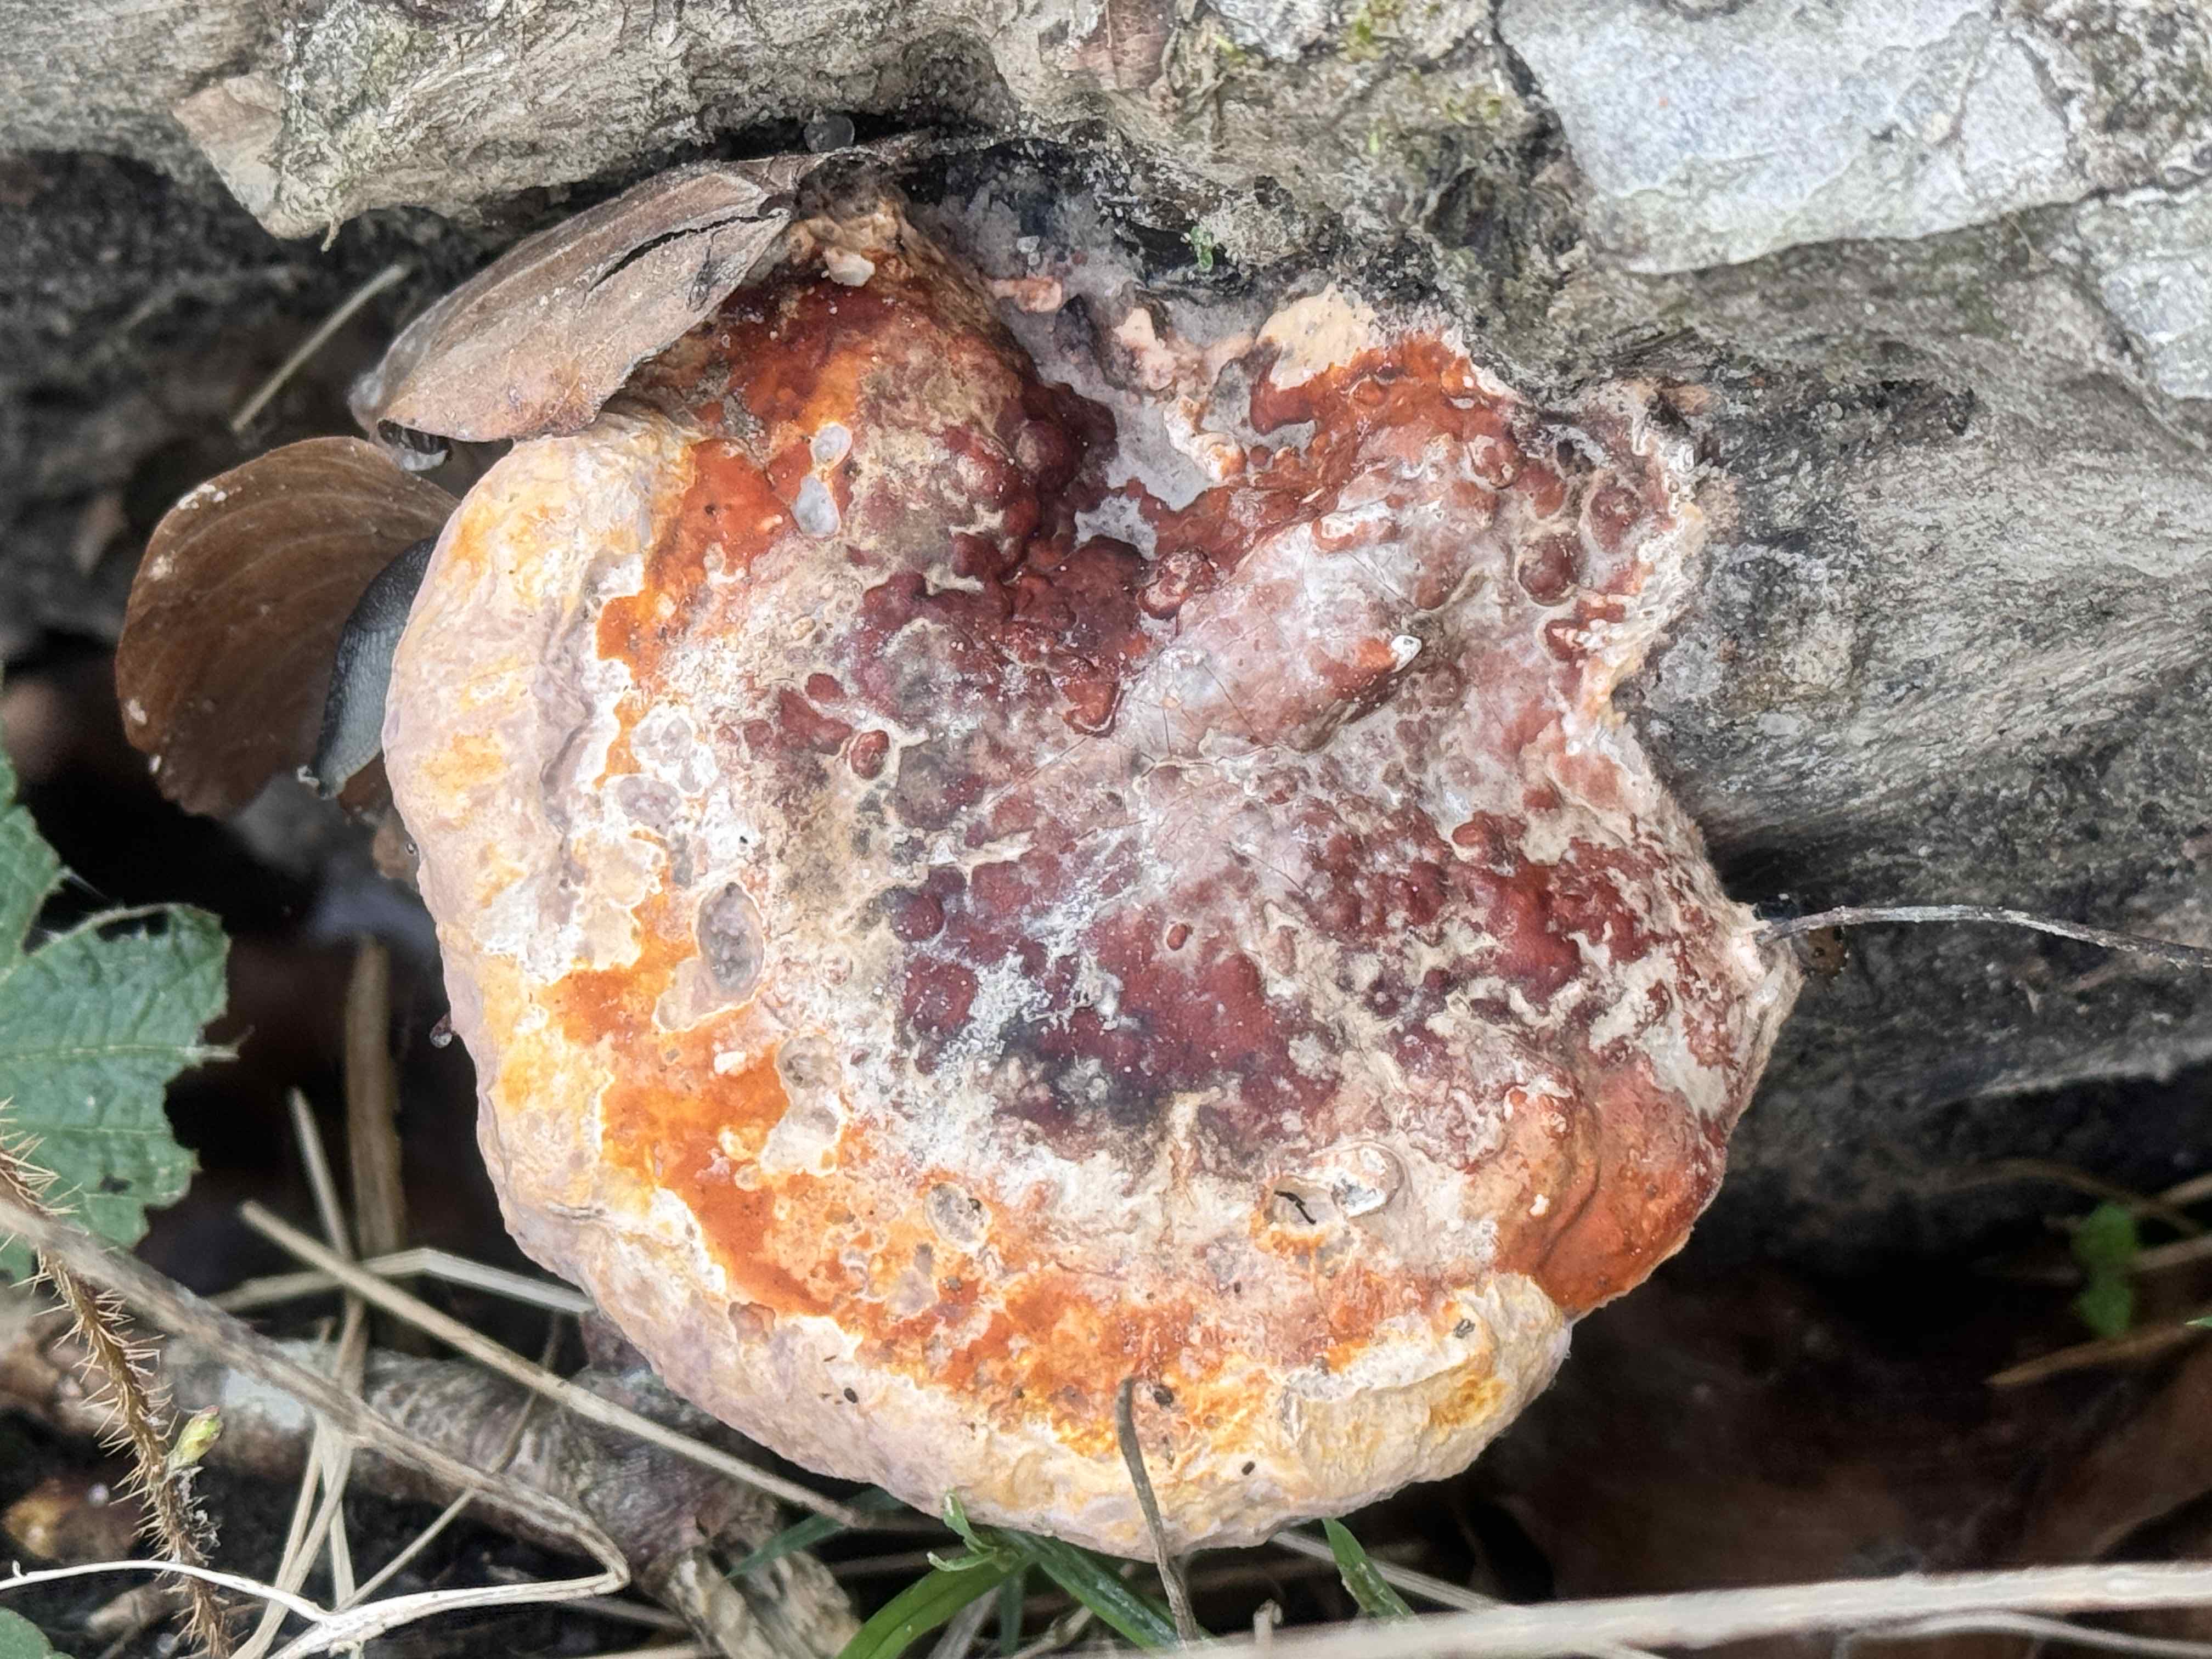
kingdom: Fungi
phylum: Basidiomycota
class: Agaricomycetes
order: Polyporales
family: Fomitopsidaceae
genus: Fomitopsis
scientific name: Fomitopsis pinicola
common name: randbæltet hovporesvamp
